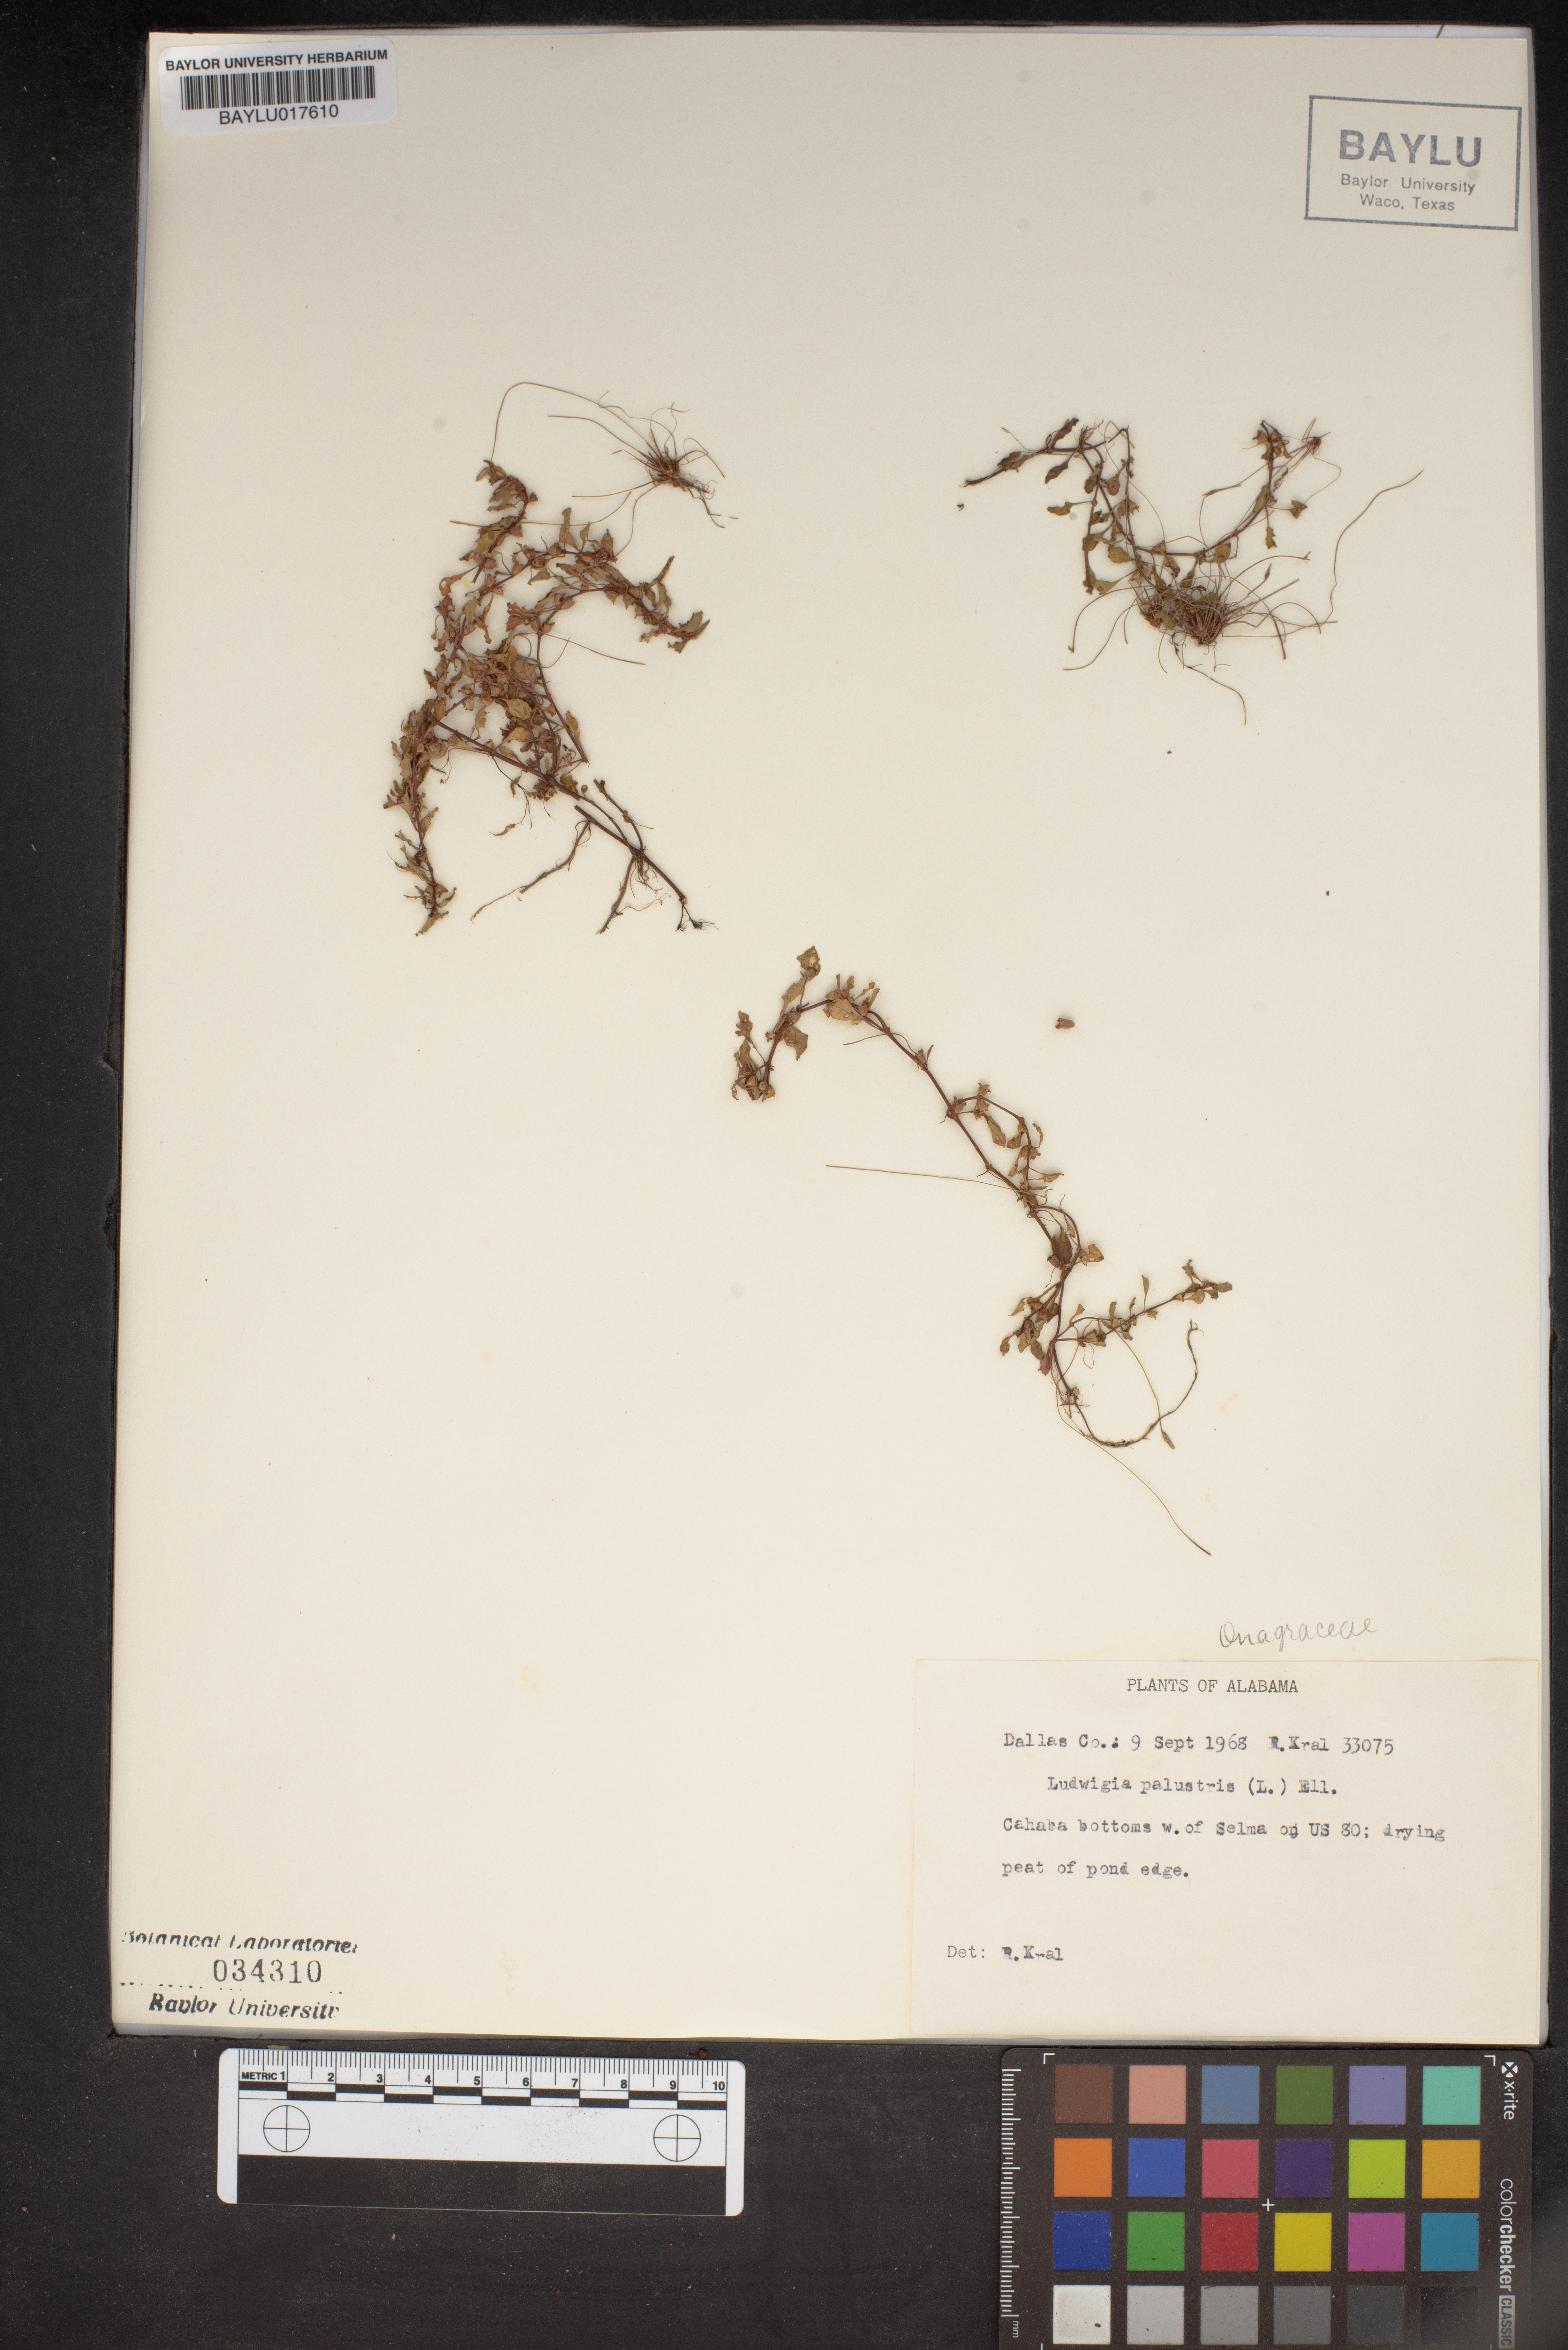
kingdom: Plantae
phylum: Tracheophyta
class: Magnoliopsida
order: Myrtales
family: Onagraceae
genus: Ludwigia
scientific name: Ludwigia palustris
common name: Hampshire-purslane
